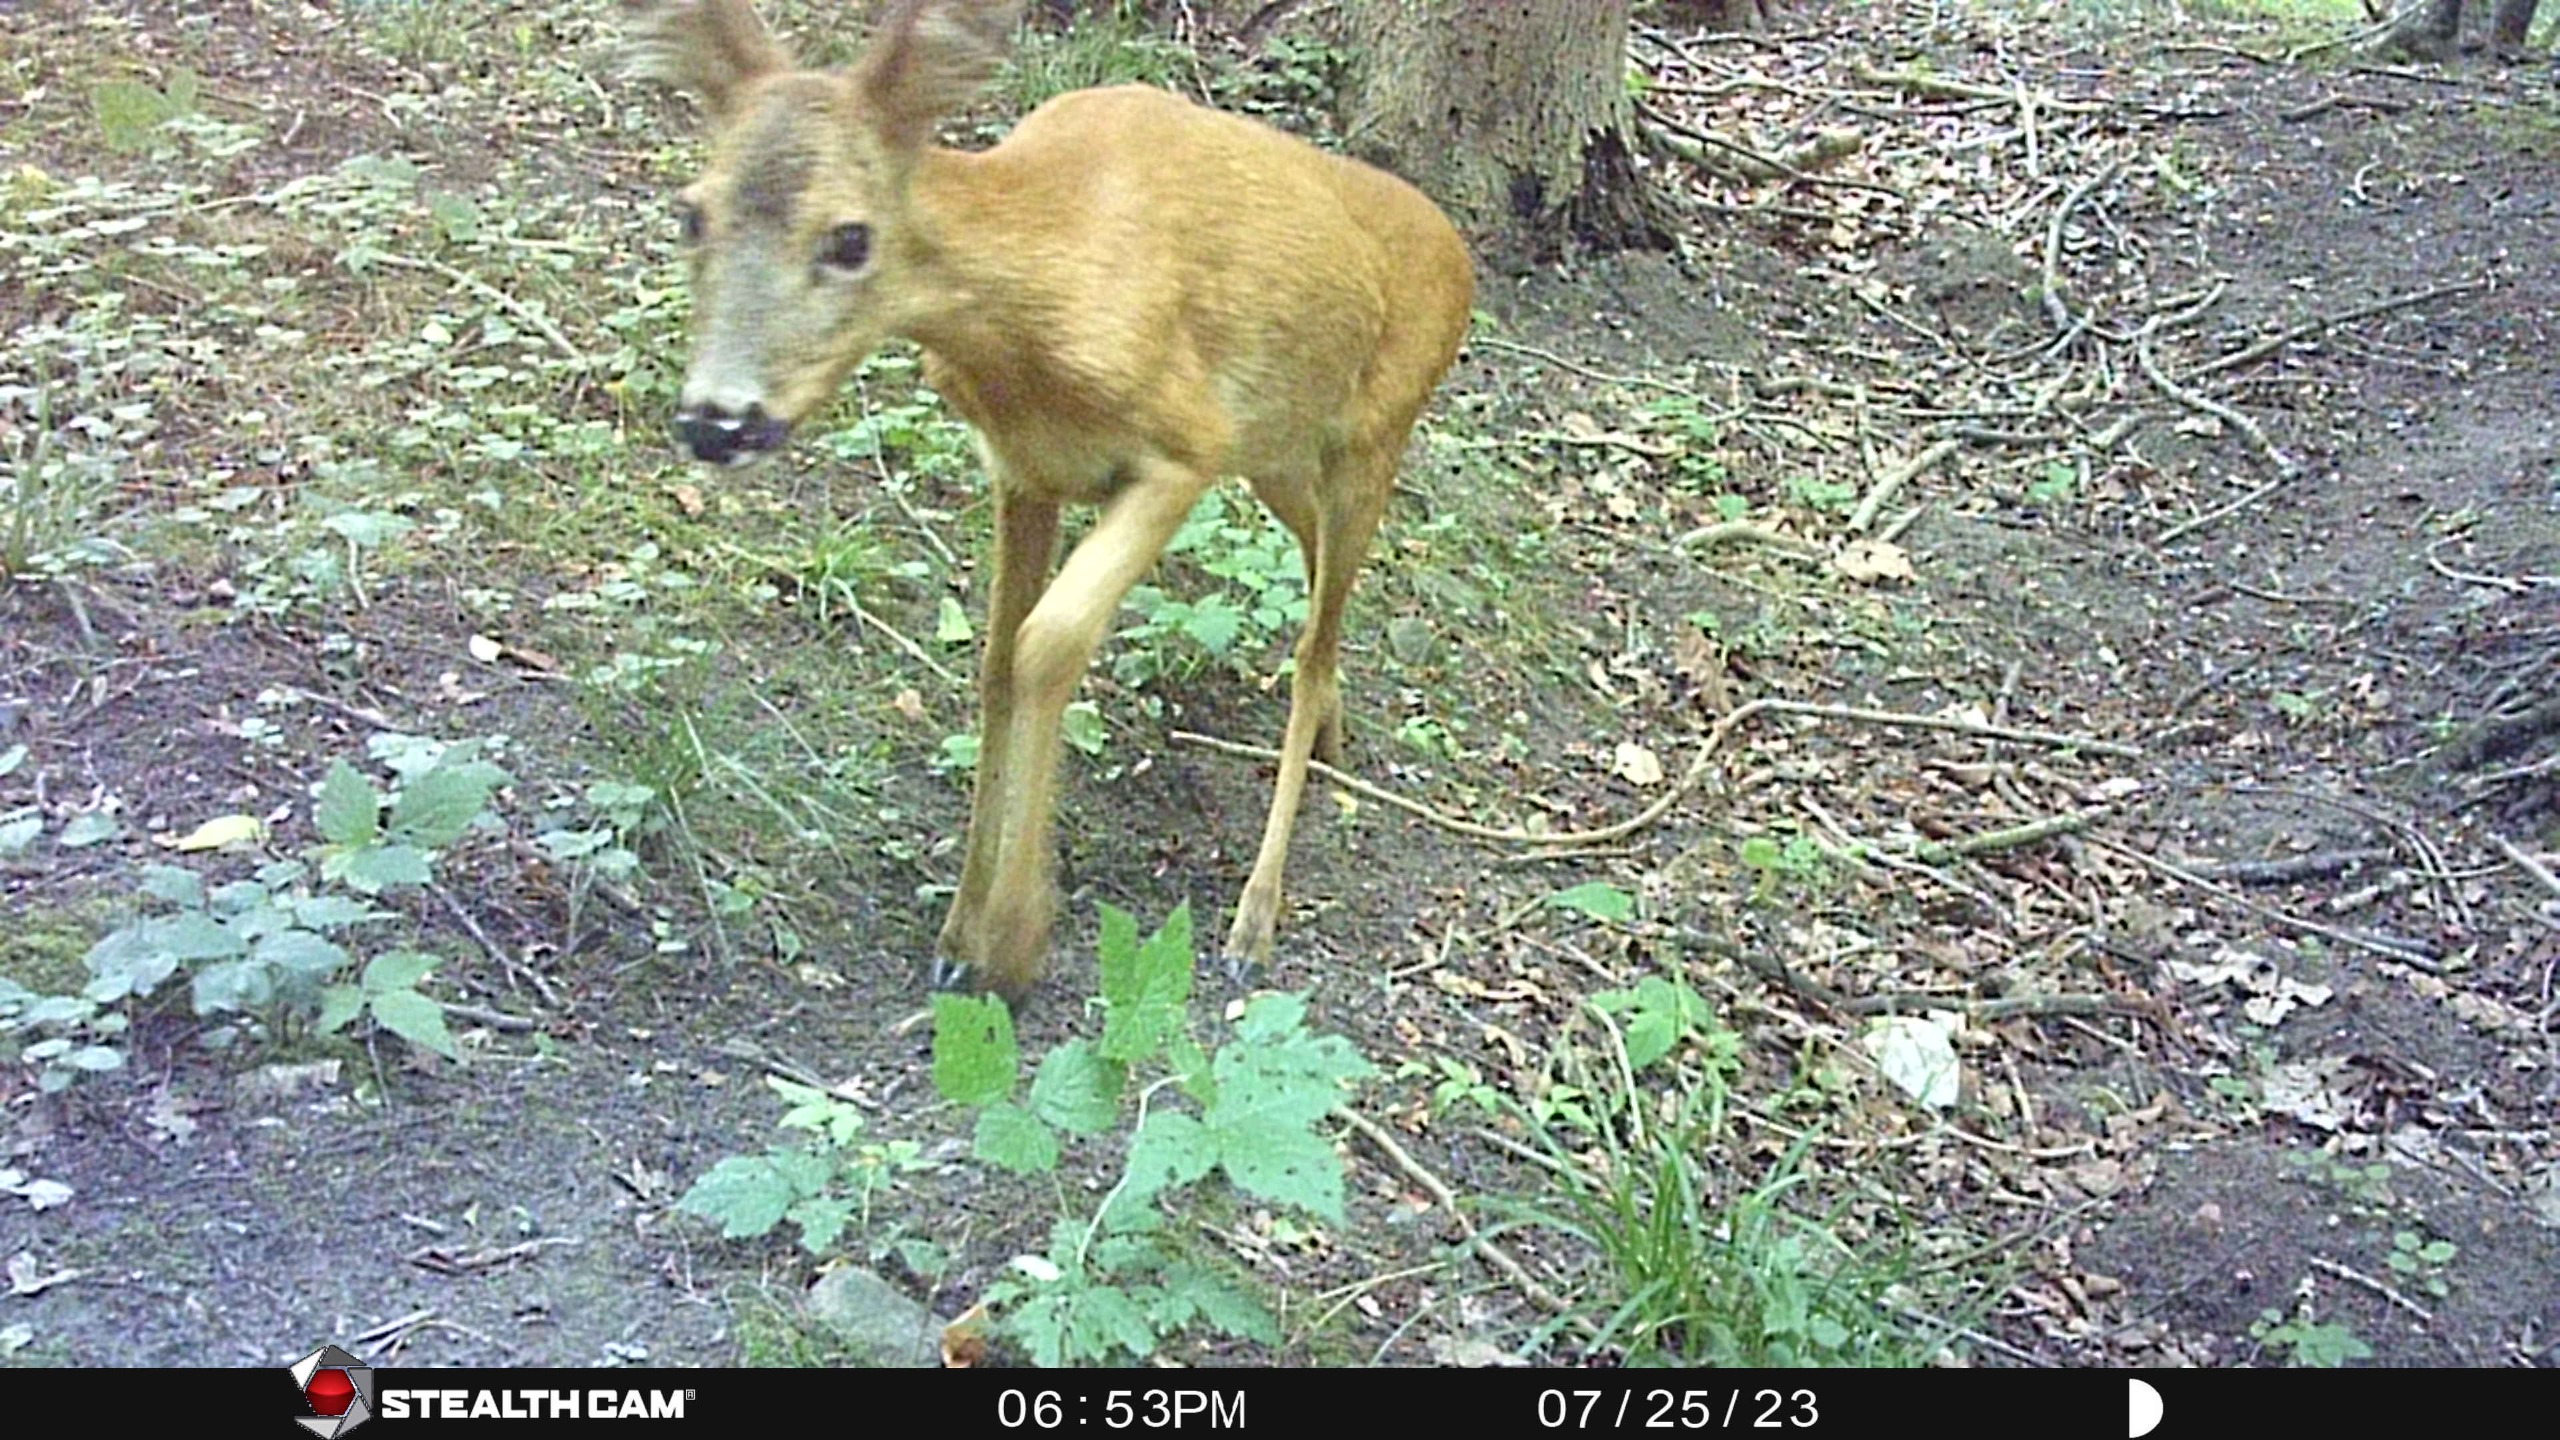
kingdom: Animalia
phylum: Chordata
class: Mammalia
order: Artiodactyla
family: Cervidae
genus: Capreolus
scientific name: Capreolus capreolus
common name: Rådyr
